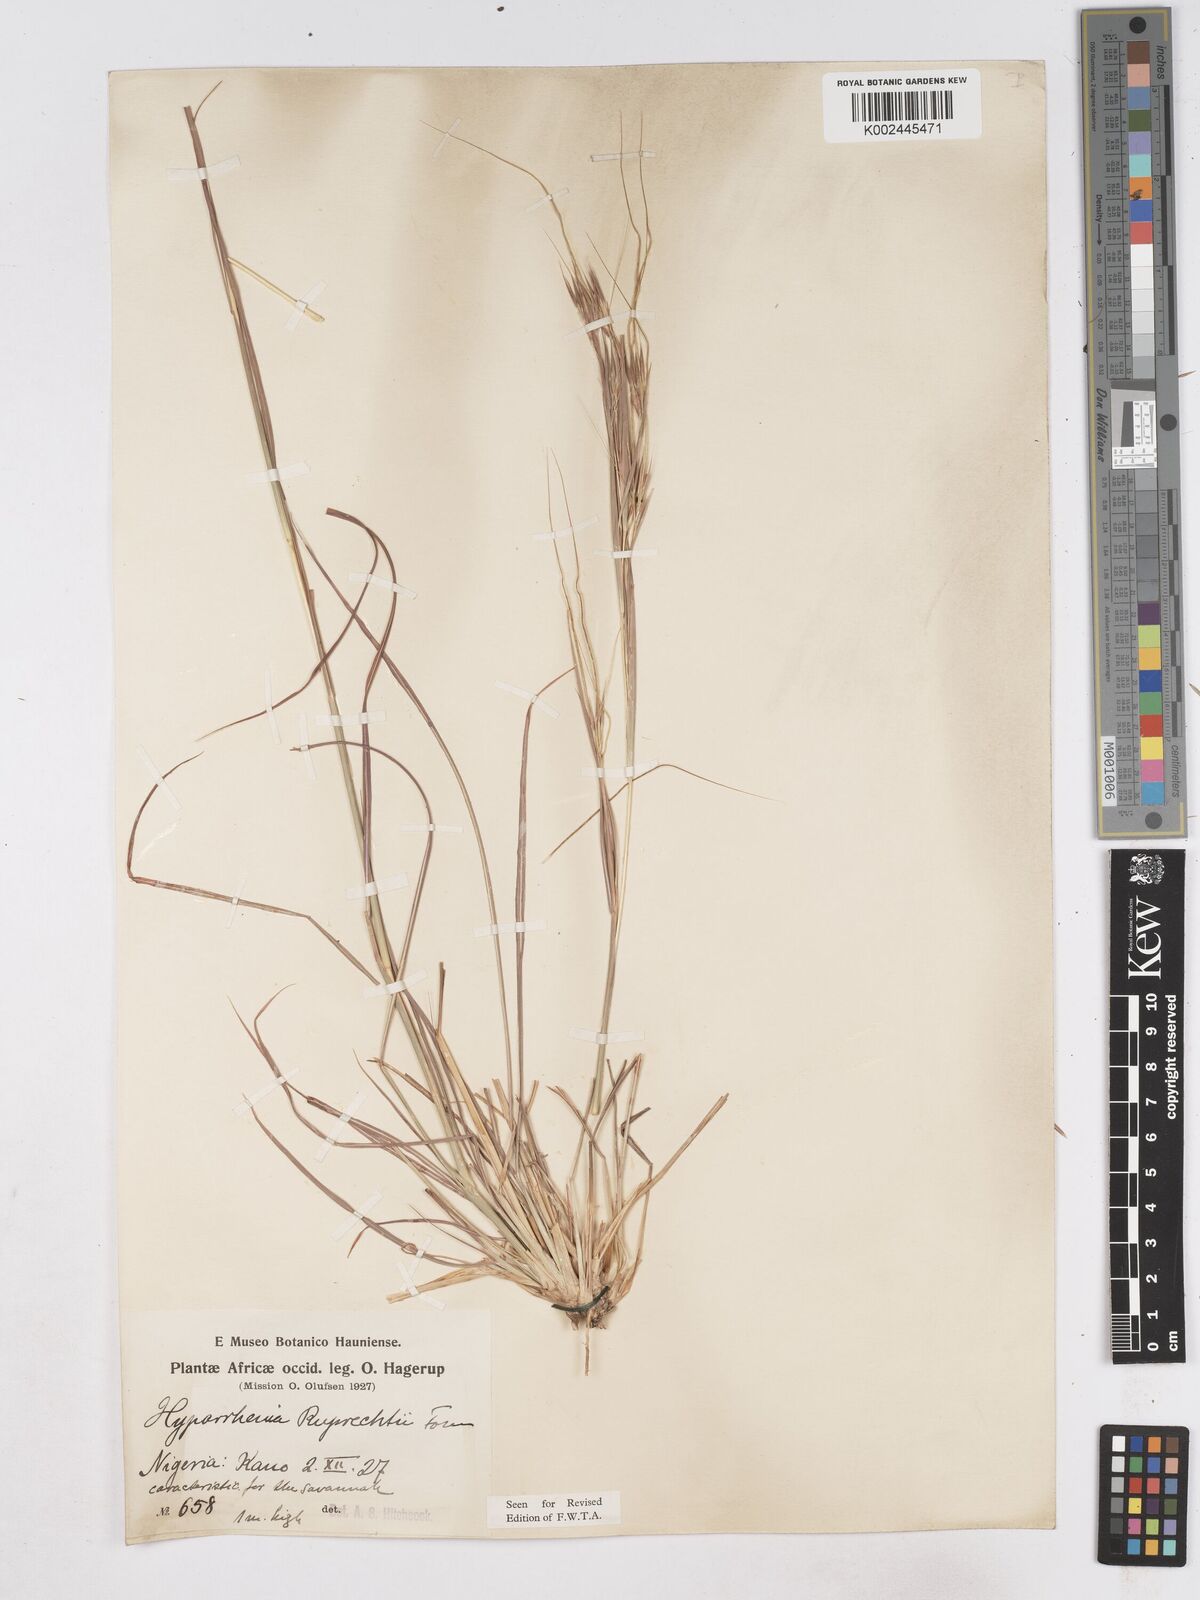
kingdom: Plantae
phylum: Tracheophyta
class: Liliopsida
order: Poales
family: Poaceae
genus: Hyperthelia
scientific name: Hyperthelia dissoluta
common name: Yellow thatching grass
